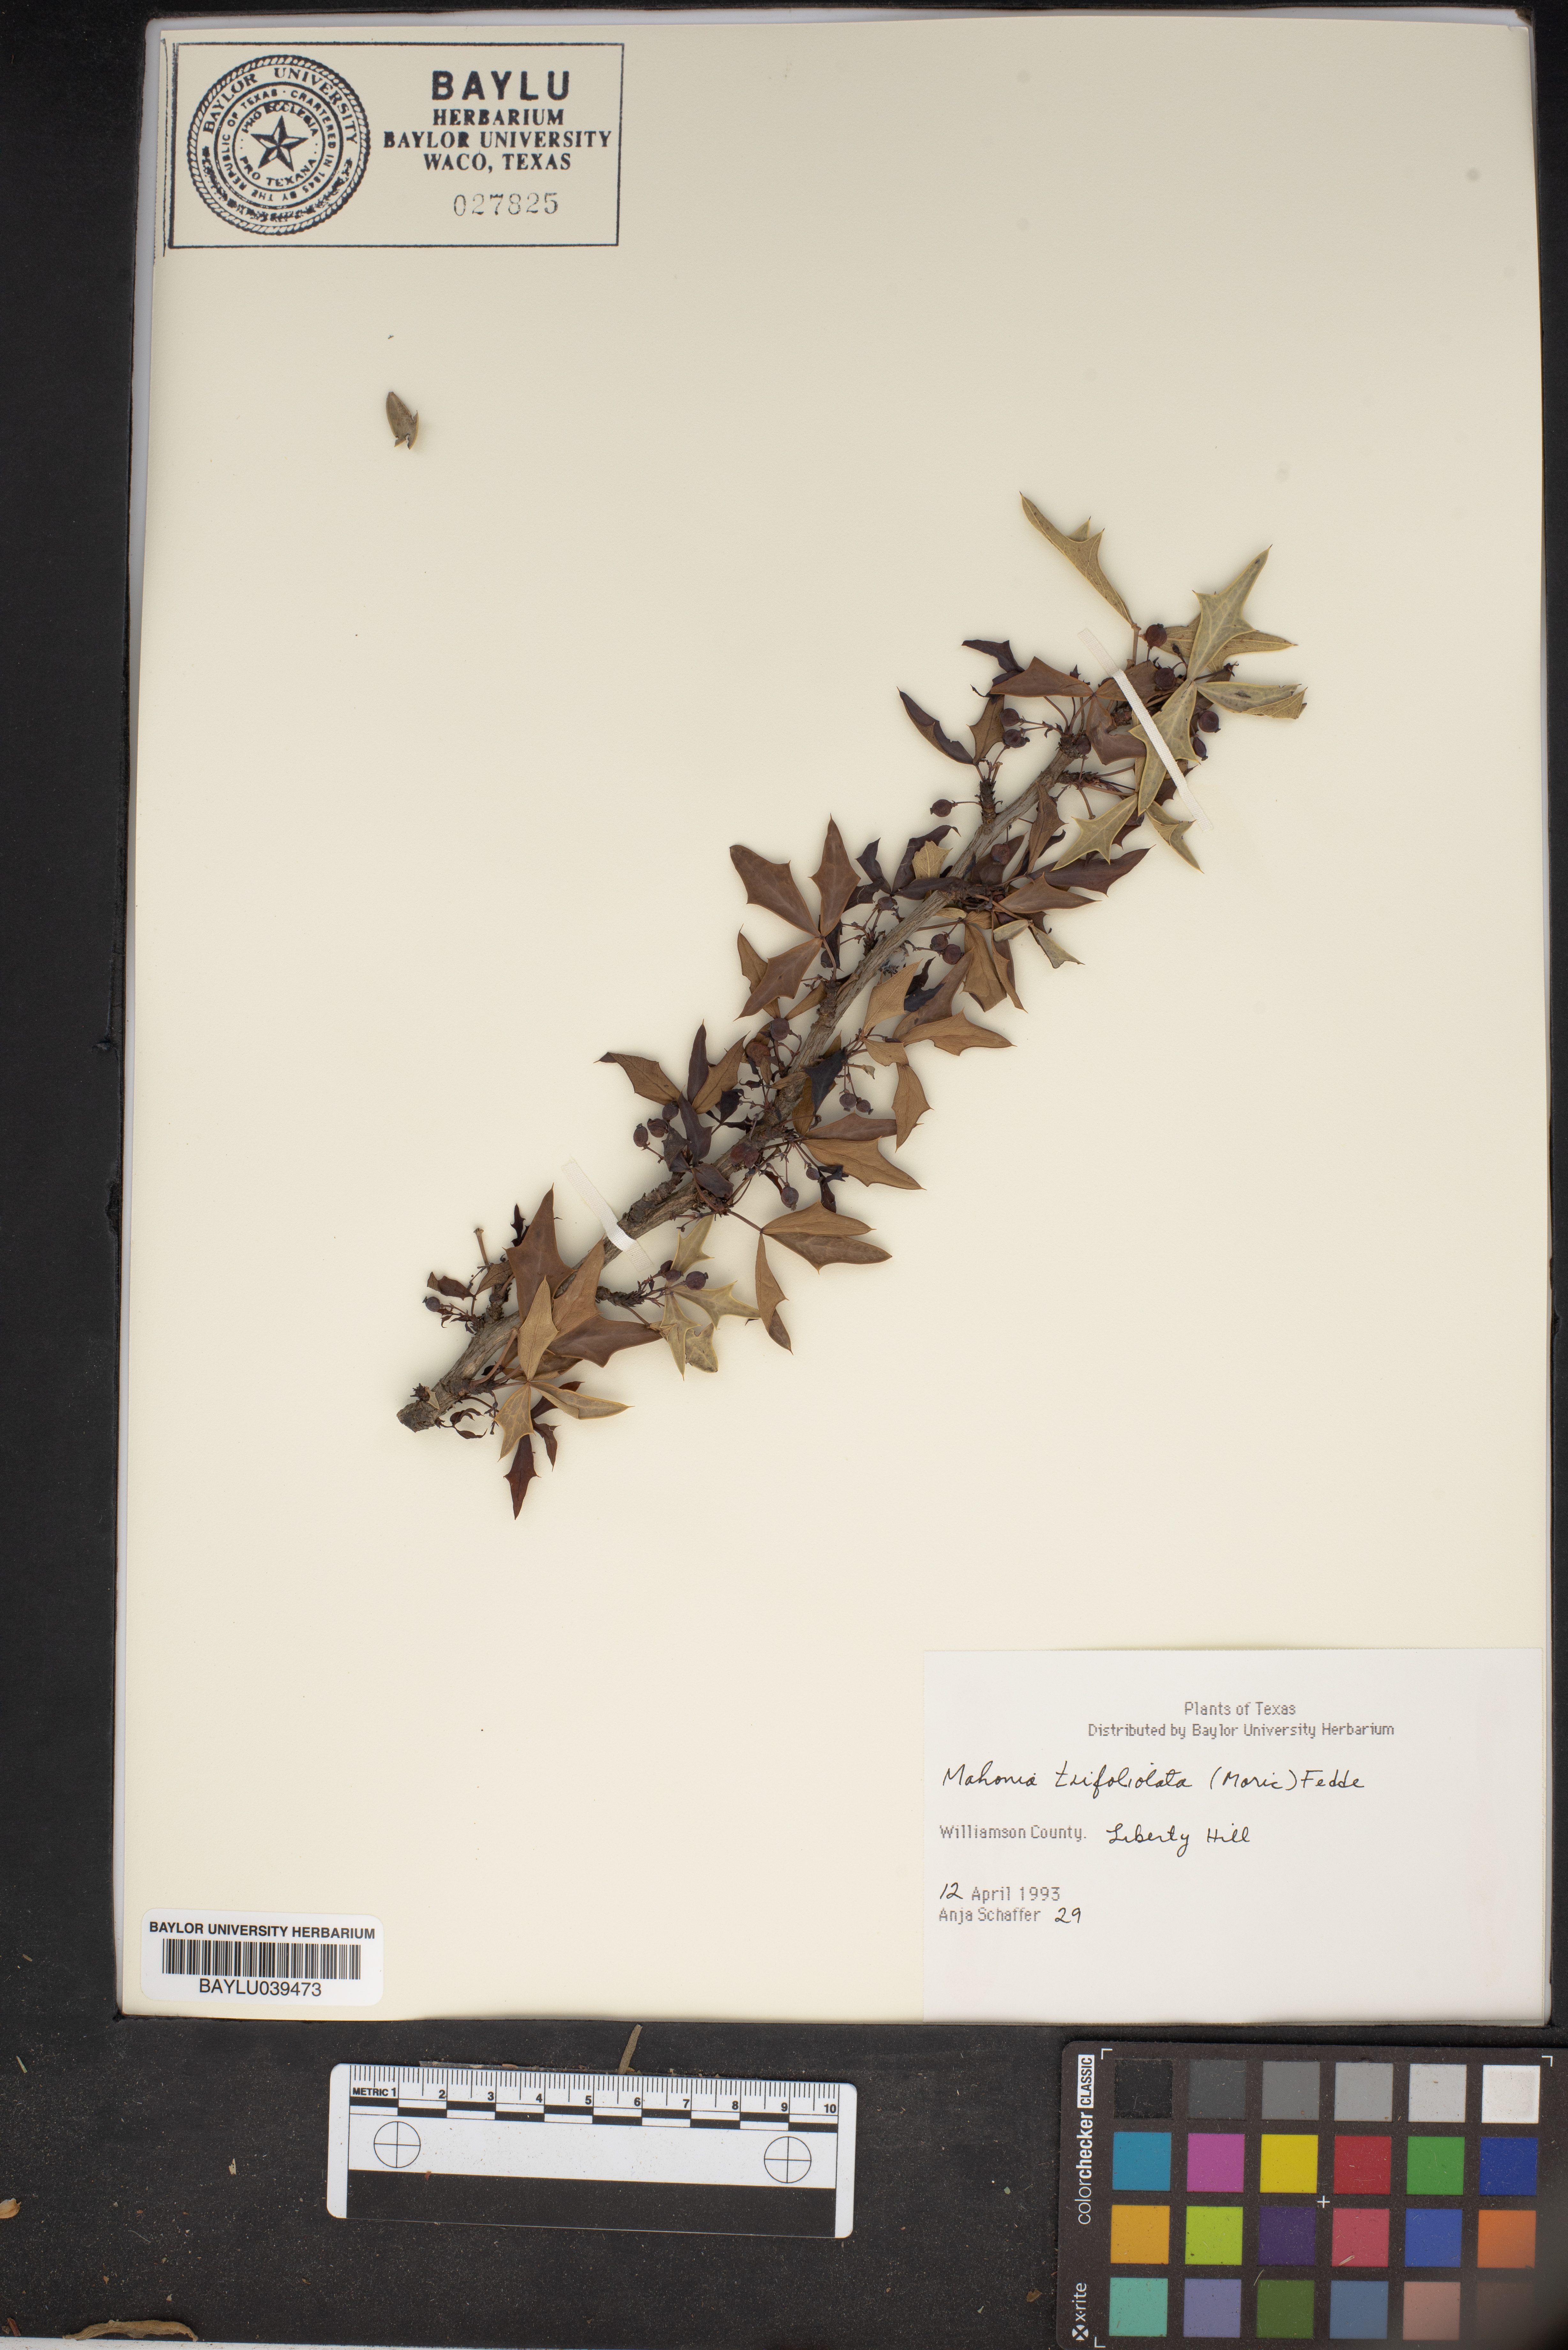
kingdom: Plantae
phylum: Tracheophyta
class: Magnoliopsida
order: Ranunculales
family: Berberidaceae
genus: Alloberberis
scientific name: Alloberberis trifoliolata
